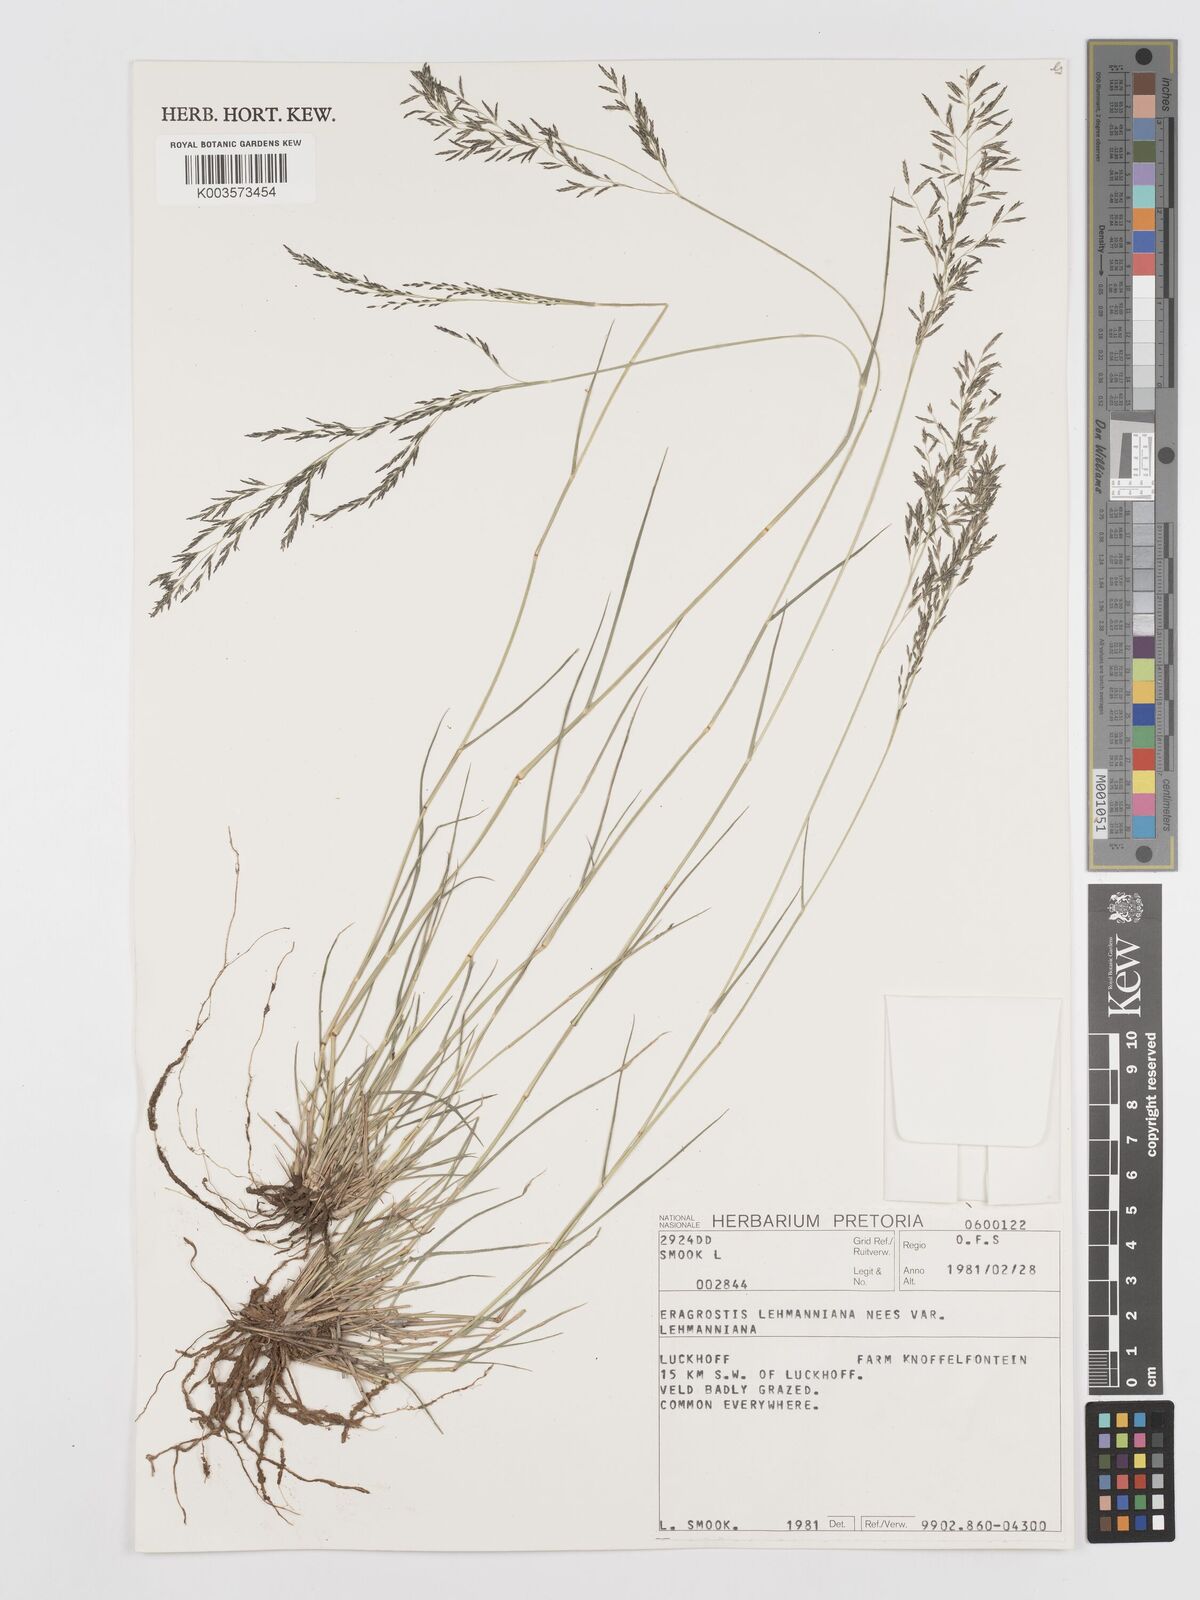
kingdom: Plantae
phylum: Tracheophyta
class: Liliopsida
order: Poales
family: Poaceae
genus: Eragrostis
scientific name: Eragrostis lehmanniana
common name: Lehmann lovegrass
